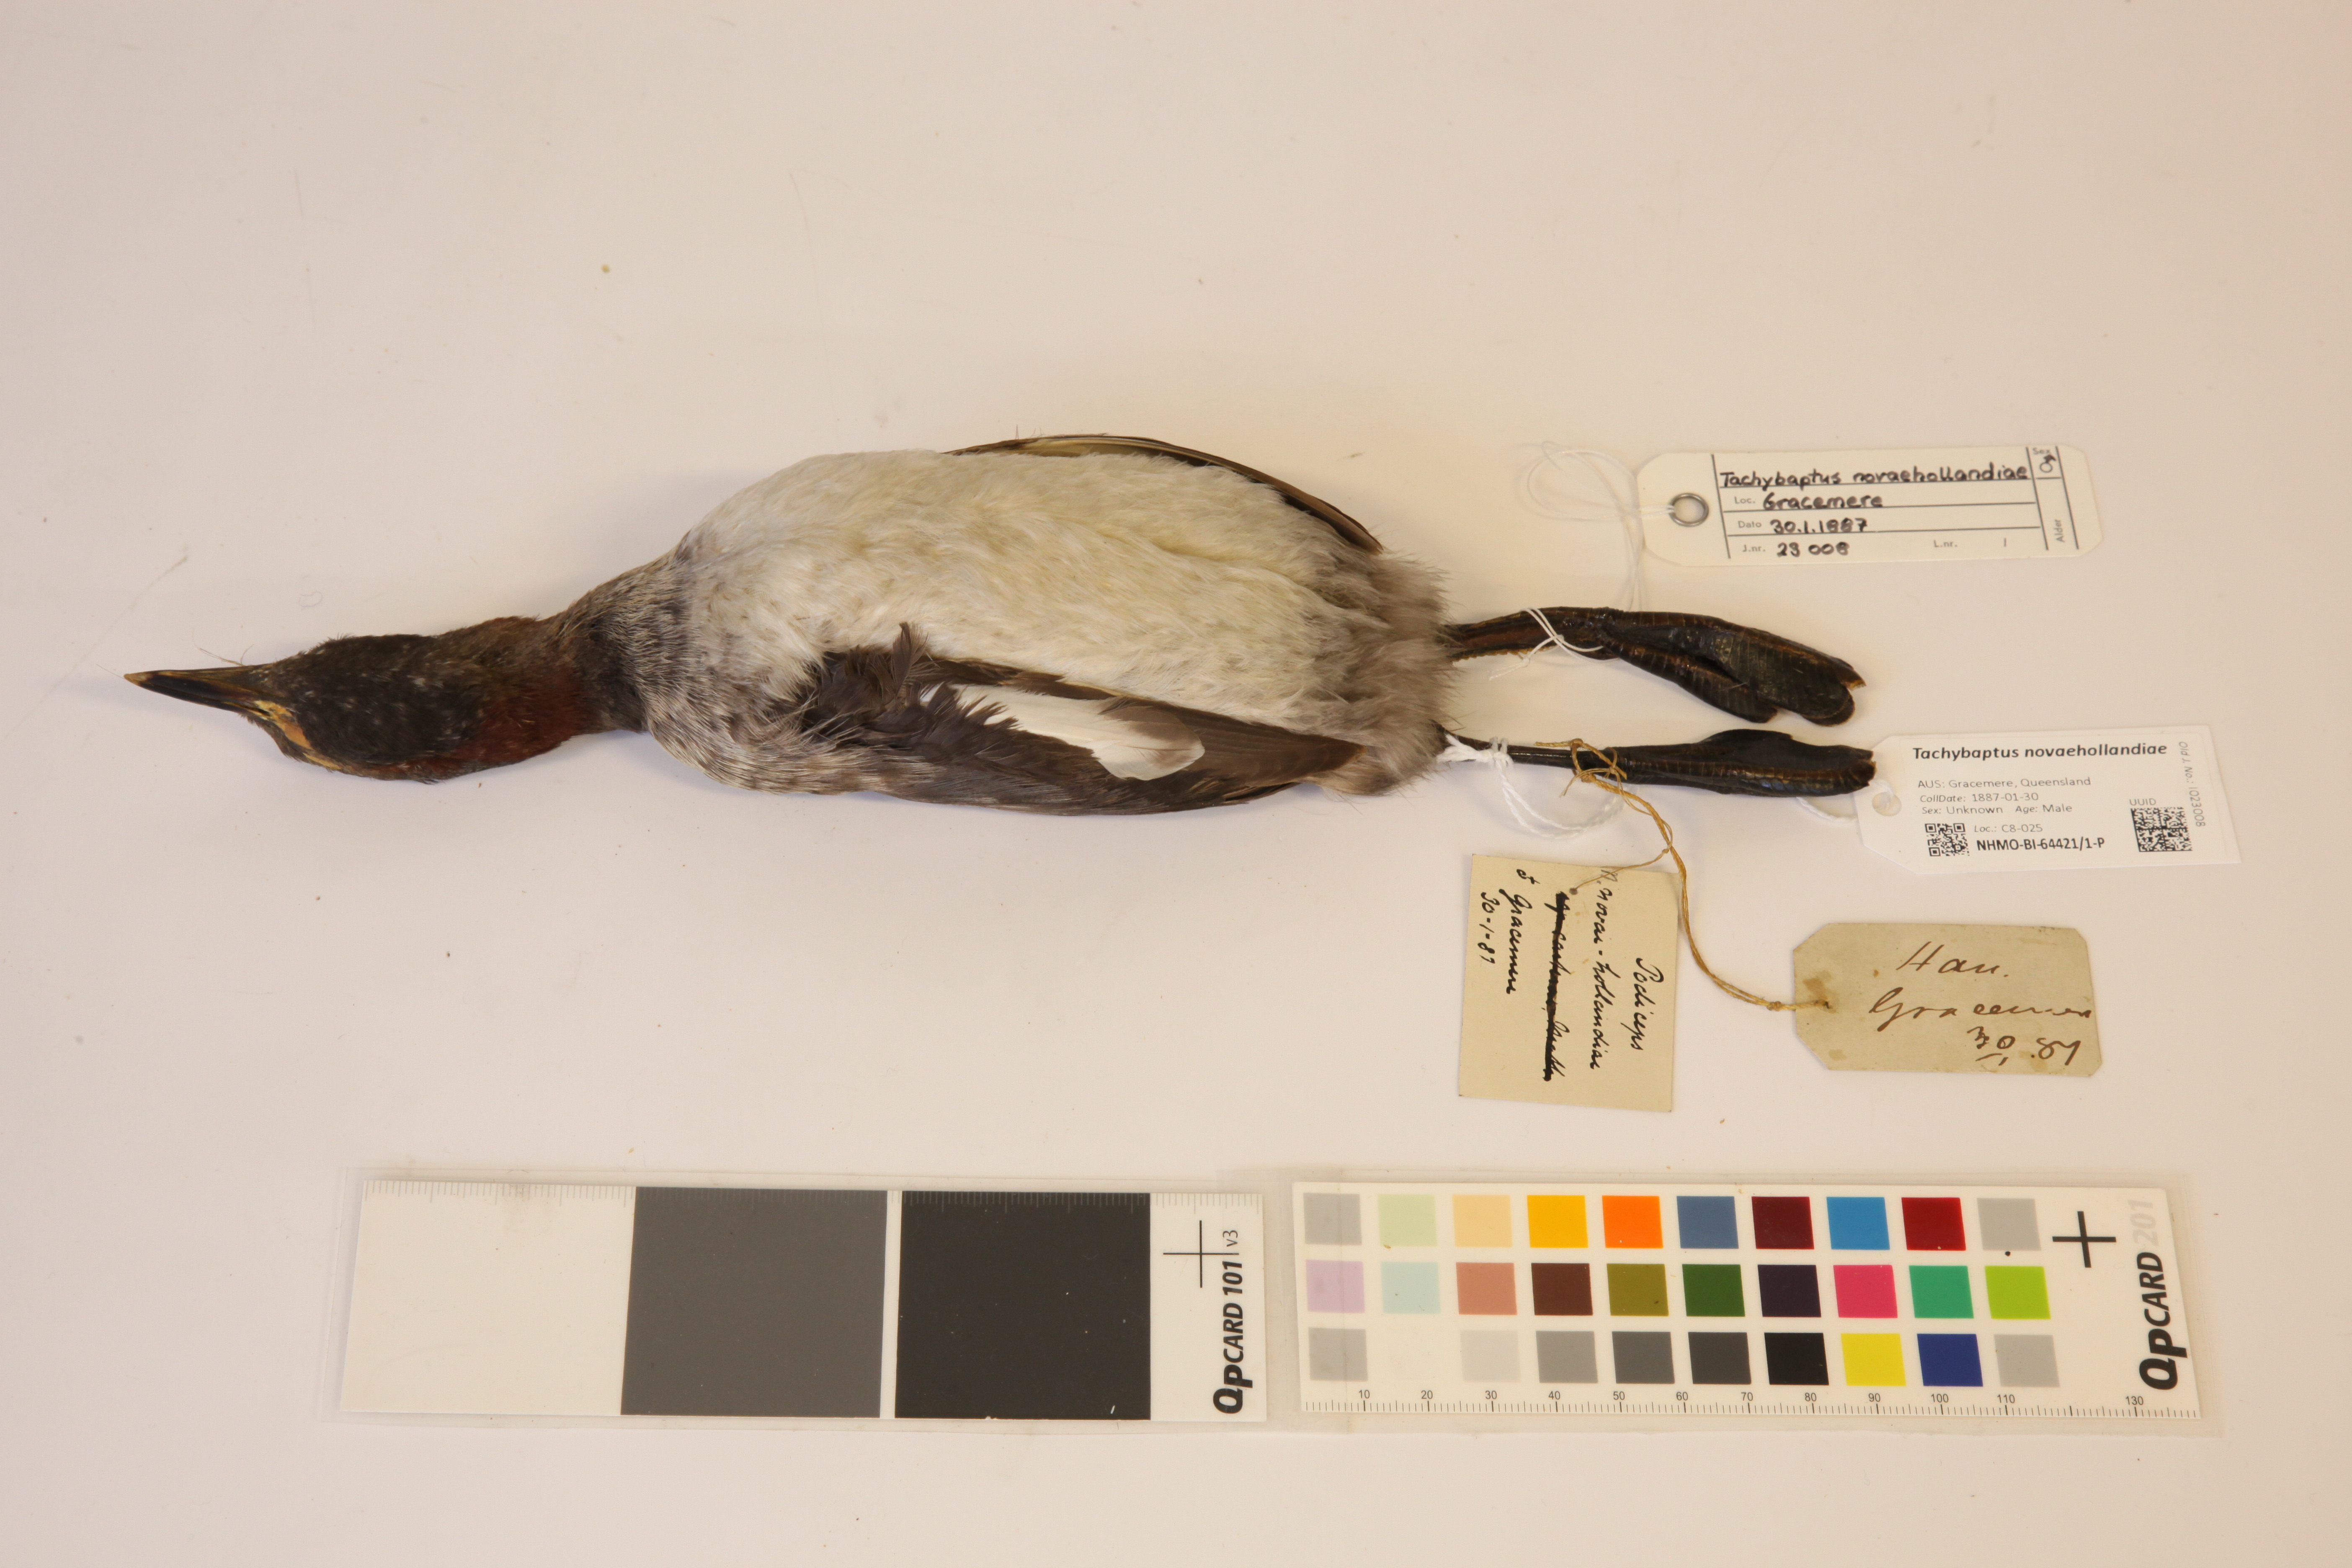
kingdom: Animalia
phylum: Chordata
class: Aves
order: Podicipediformes
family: Podicipedidae
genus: Tachybaptus
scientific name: Tachybaptus novaehollandiae
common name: Australasian grebe
